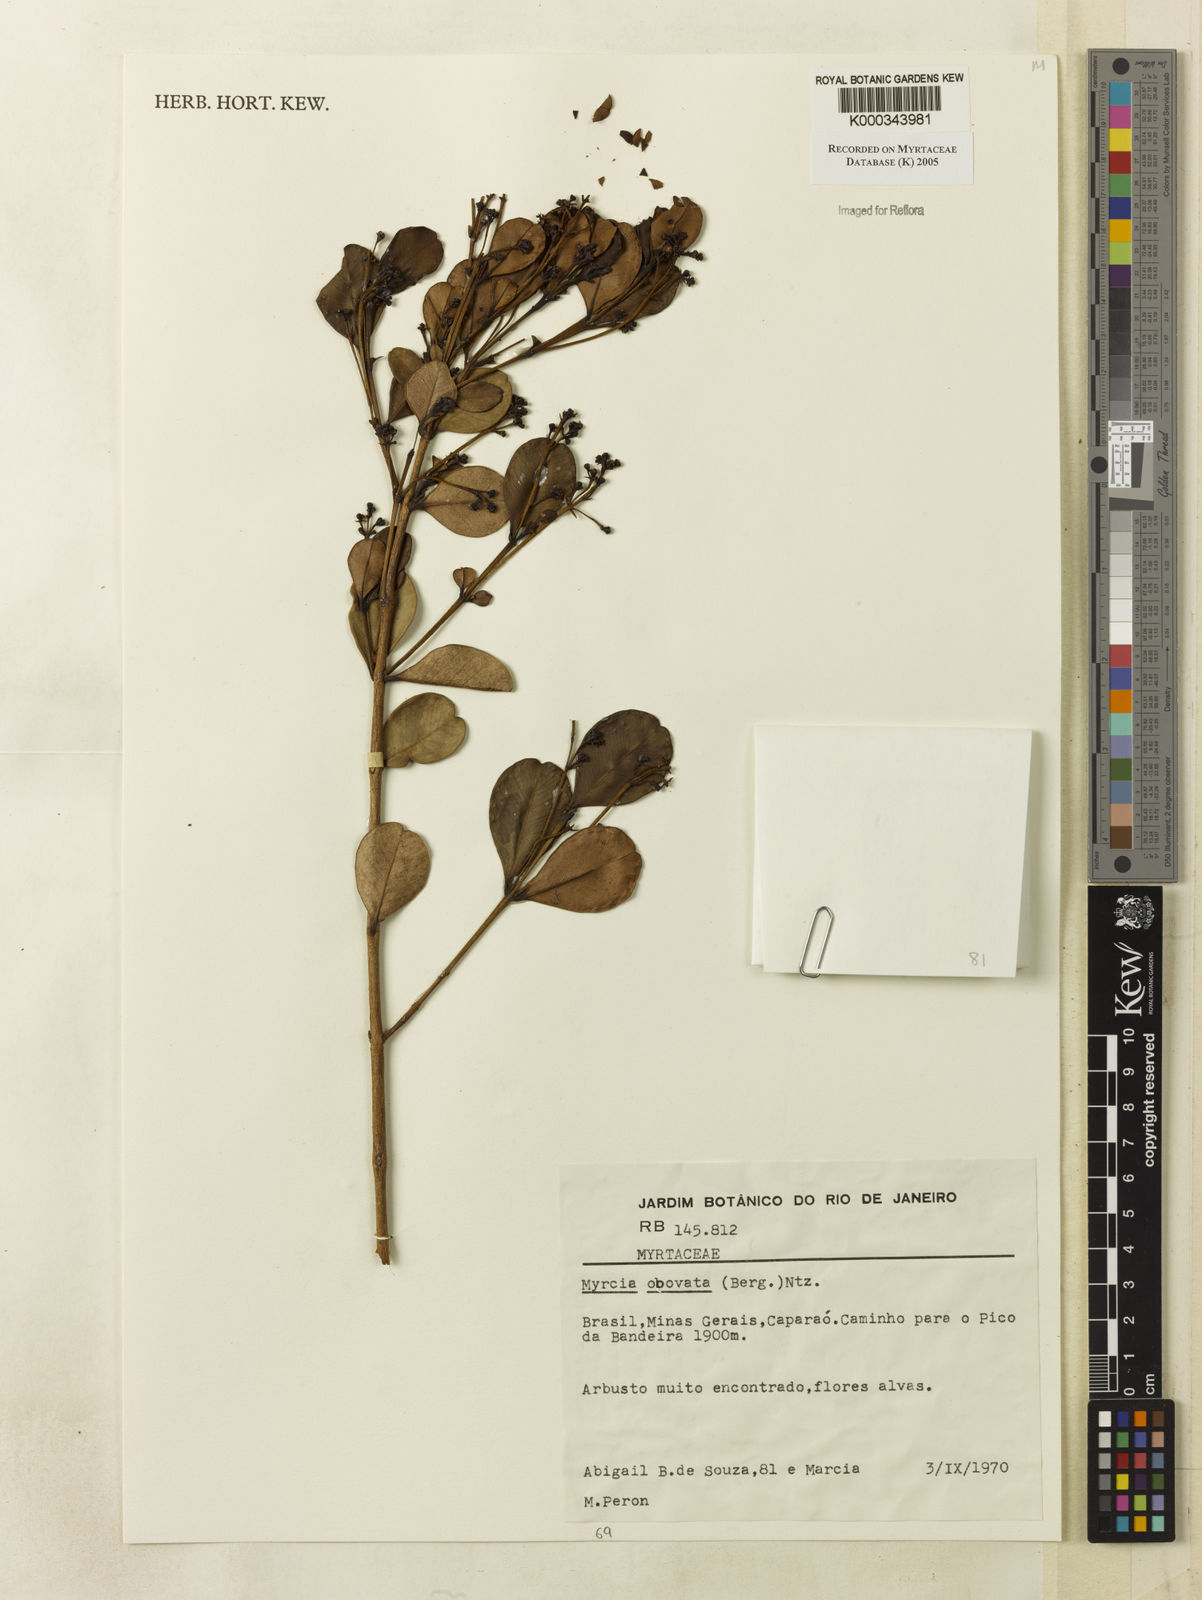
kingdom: Plantae
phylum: Tracheophyta
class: Magnoliopsida
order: Myrtales
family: Myrtaceae
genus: Myrcia
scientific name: Myrcia obovata
